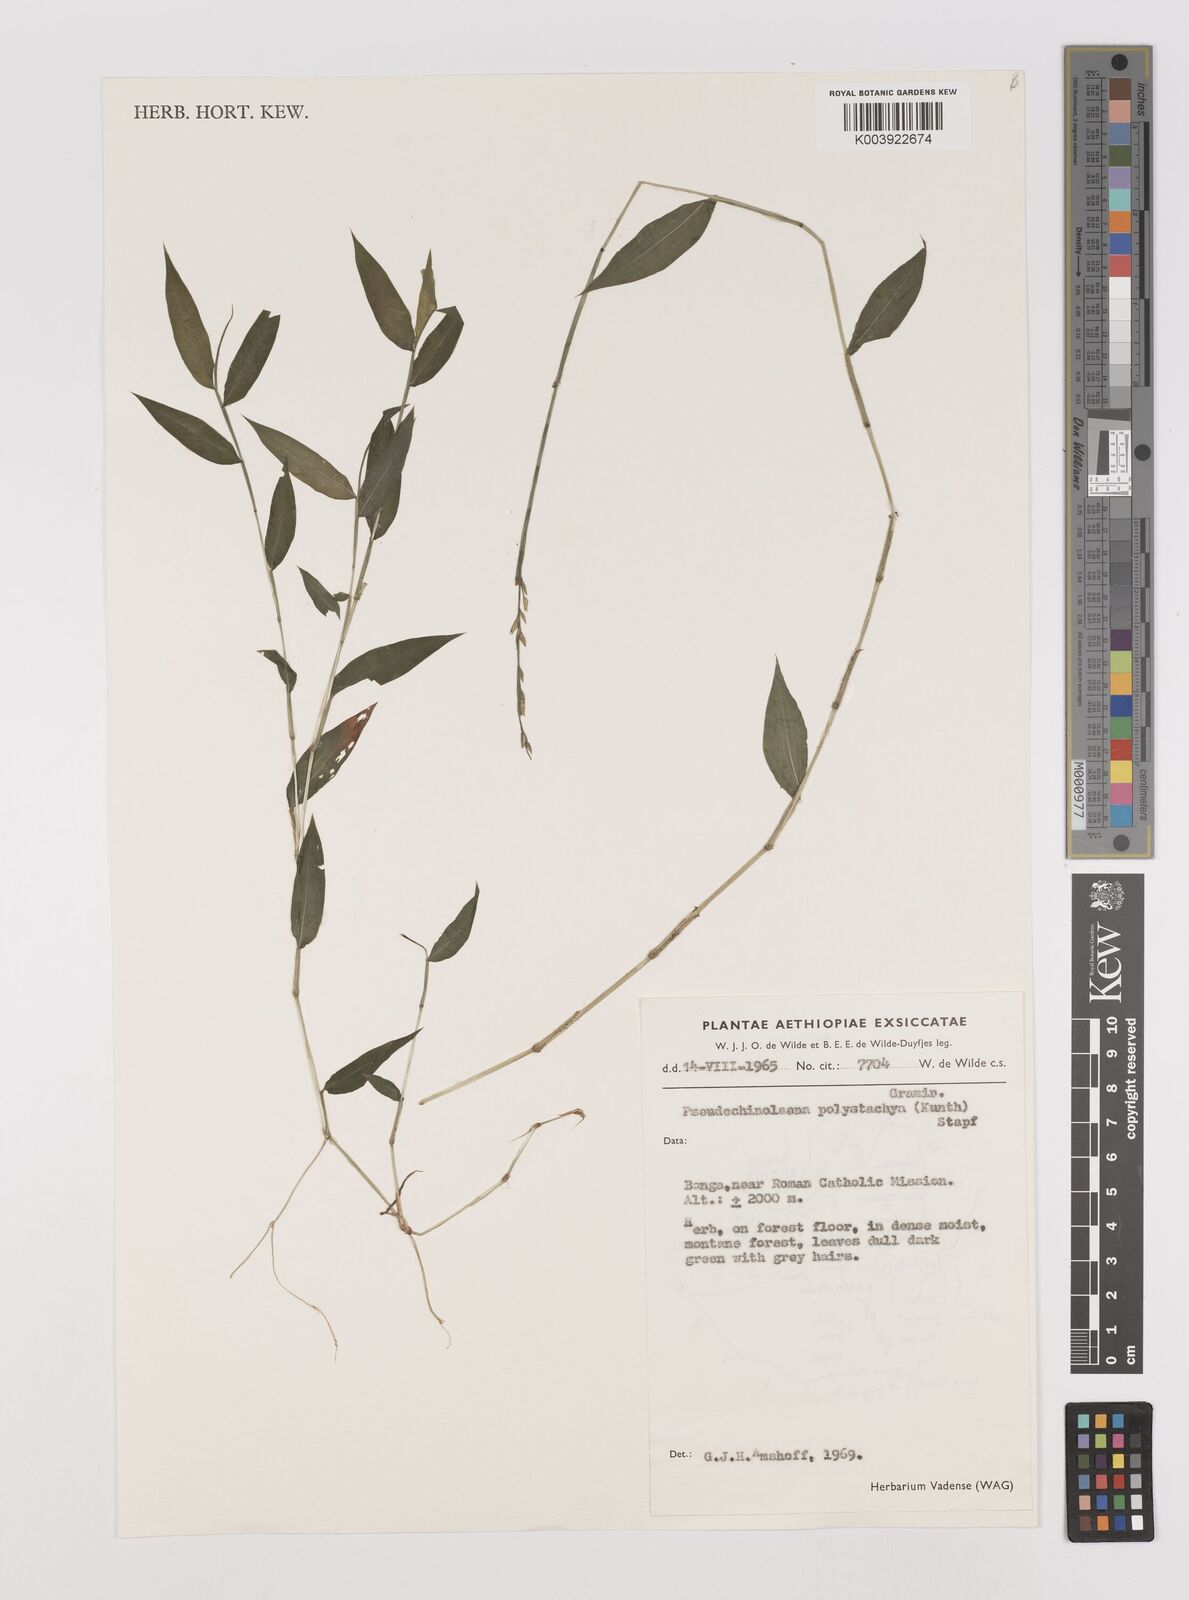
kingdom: Plantae
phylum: Tracheophyta
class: Liliopsida
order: Poales
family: Poaceae
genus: Pseudechinolaena
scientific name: Pseudechinolaena polystachya
